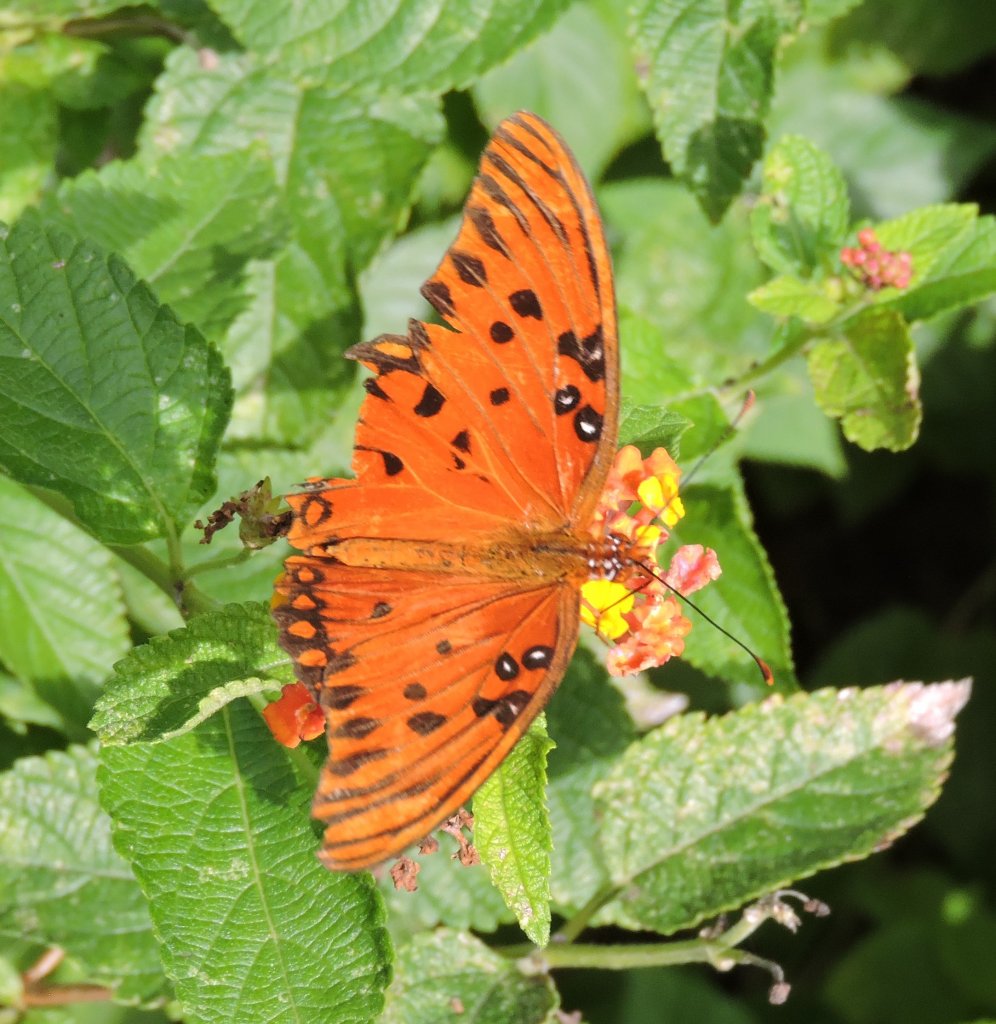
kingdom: Animalia
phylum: Arthropoda
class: Insecta
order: Lepidoptera
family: Nymphalidae
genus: Dione
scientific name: Dione vanillae
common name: Gulf Fritillary
